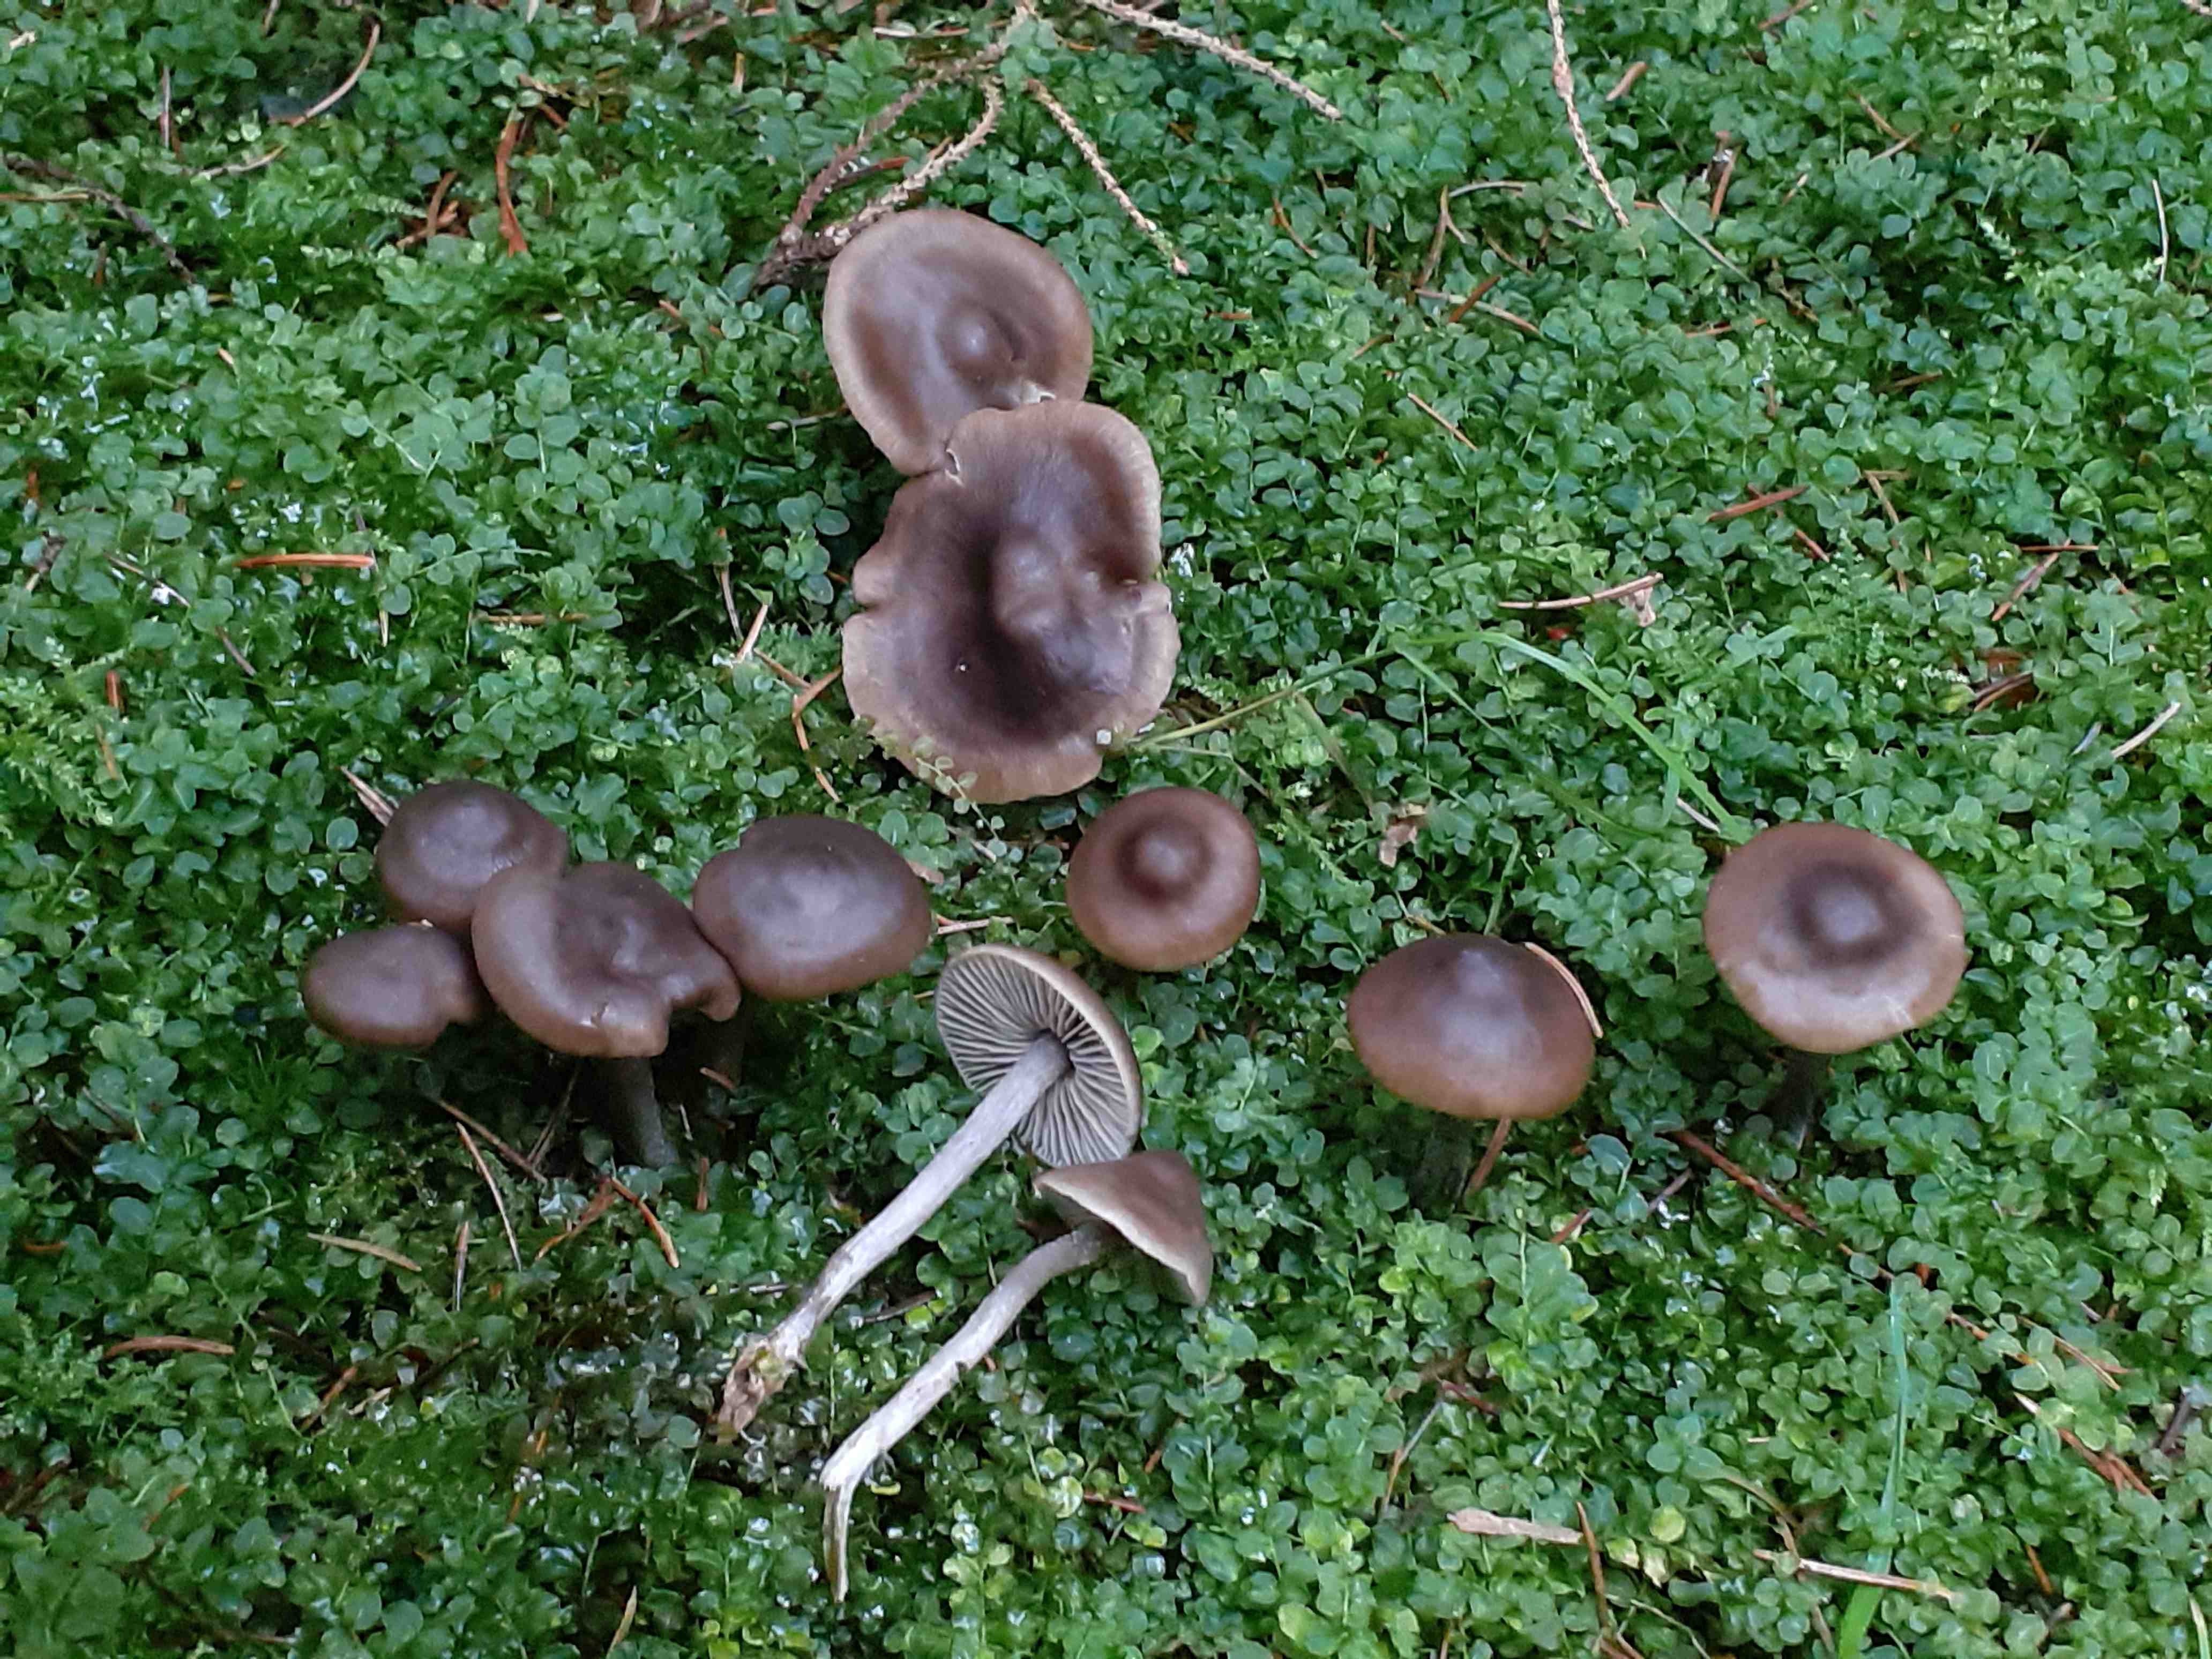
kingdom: Fungi
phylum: Basidiomycota
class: Agaricomycetes
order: Agaricales
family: Lyophyllaceae
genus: Tephrocybe
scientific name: Tephrocybe
